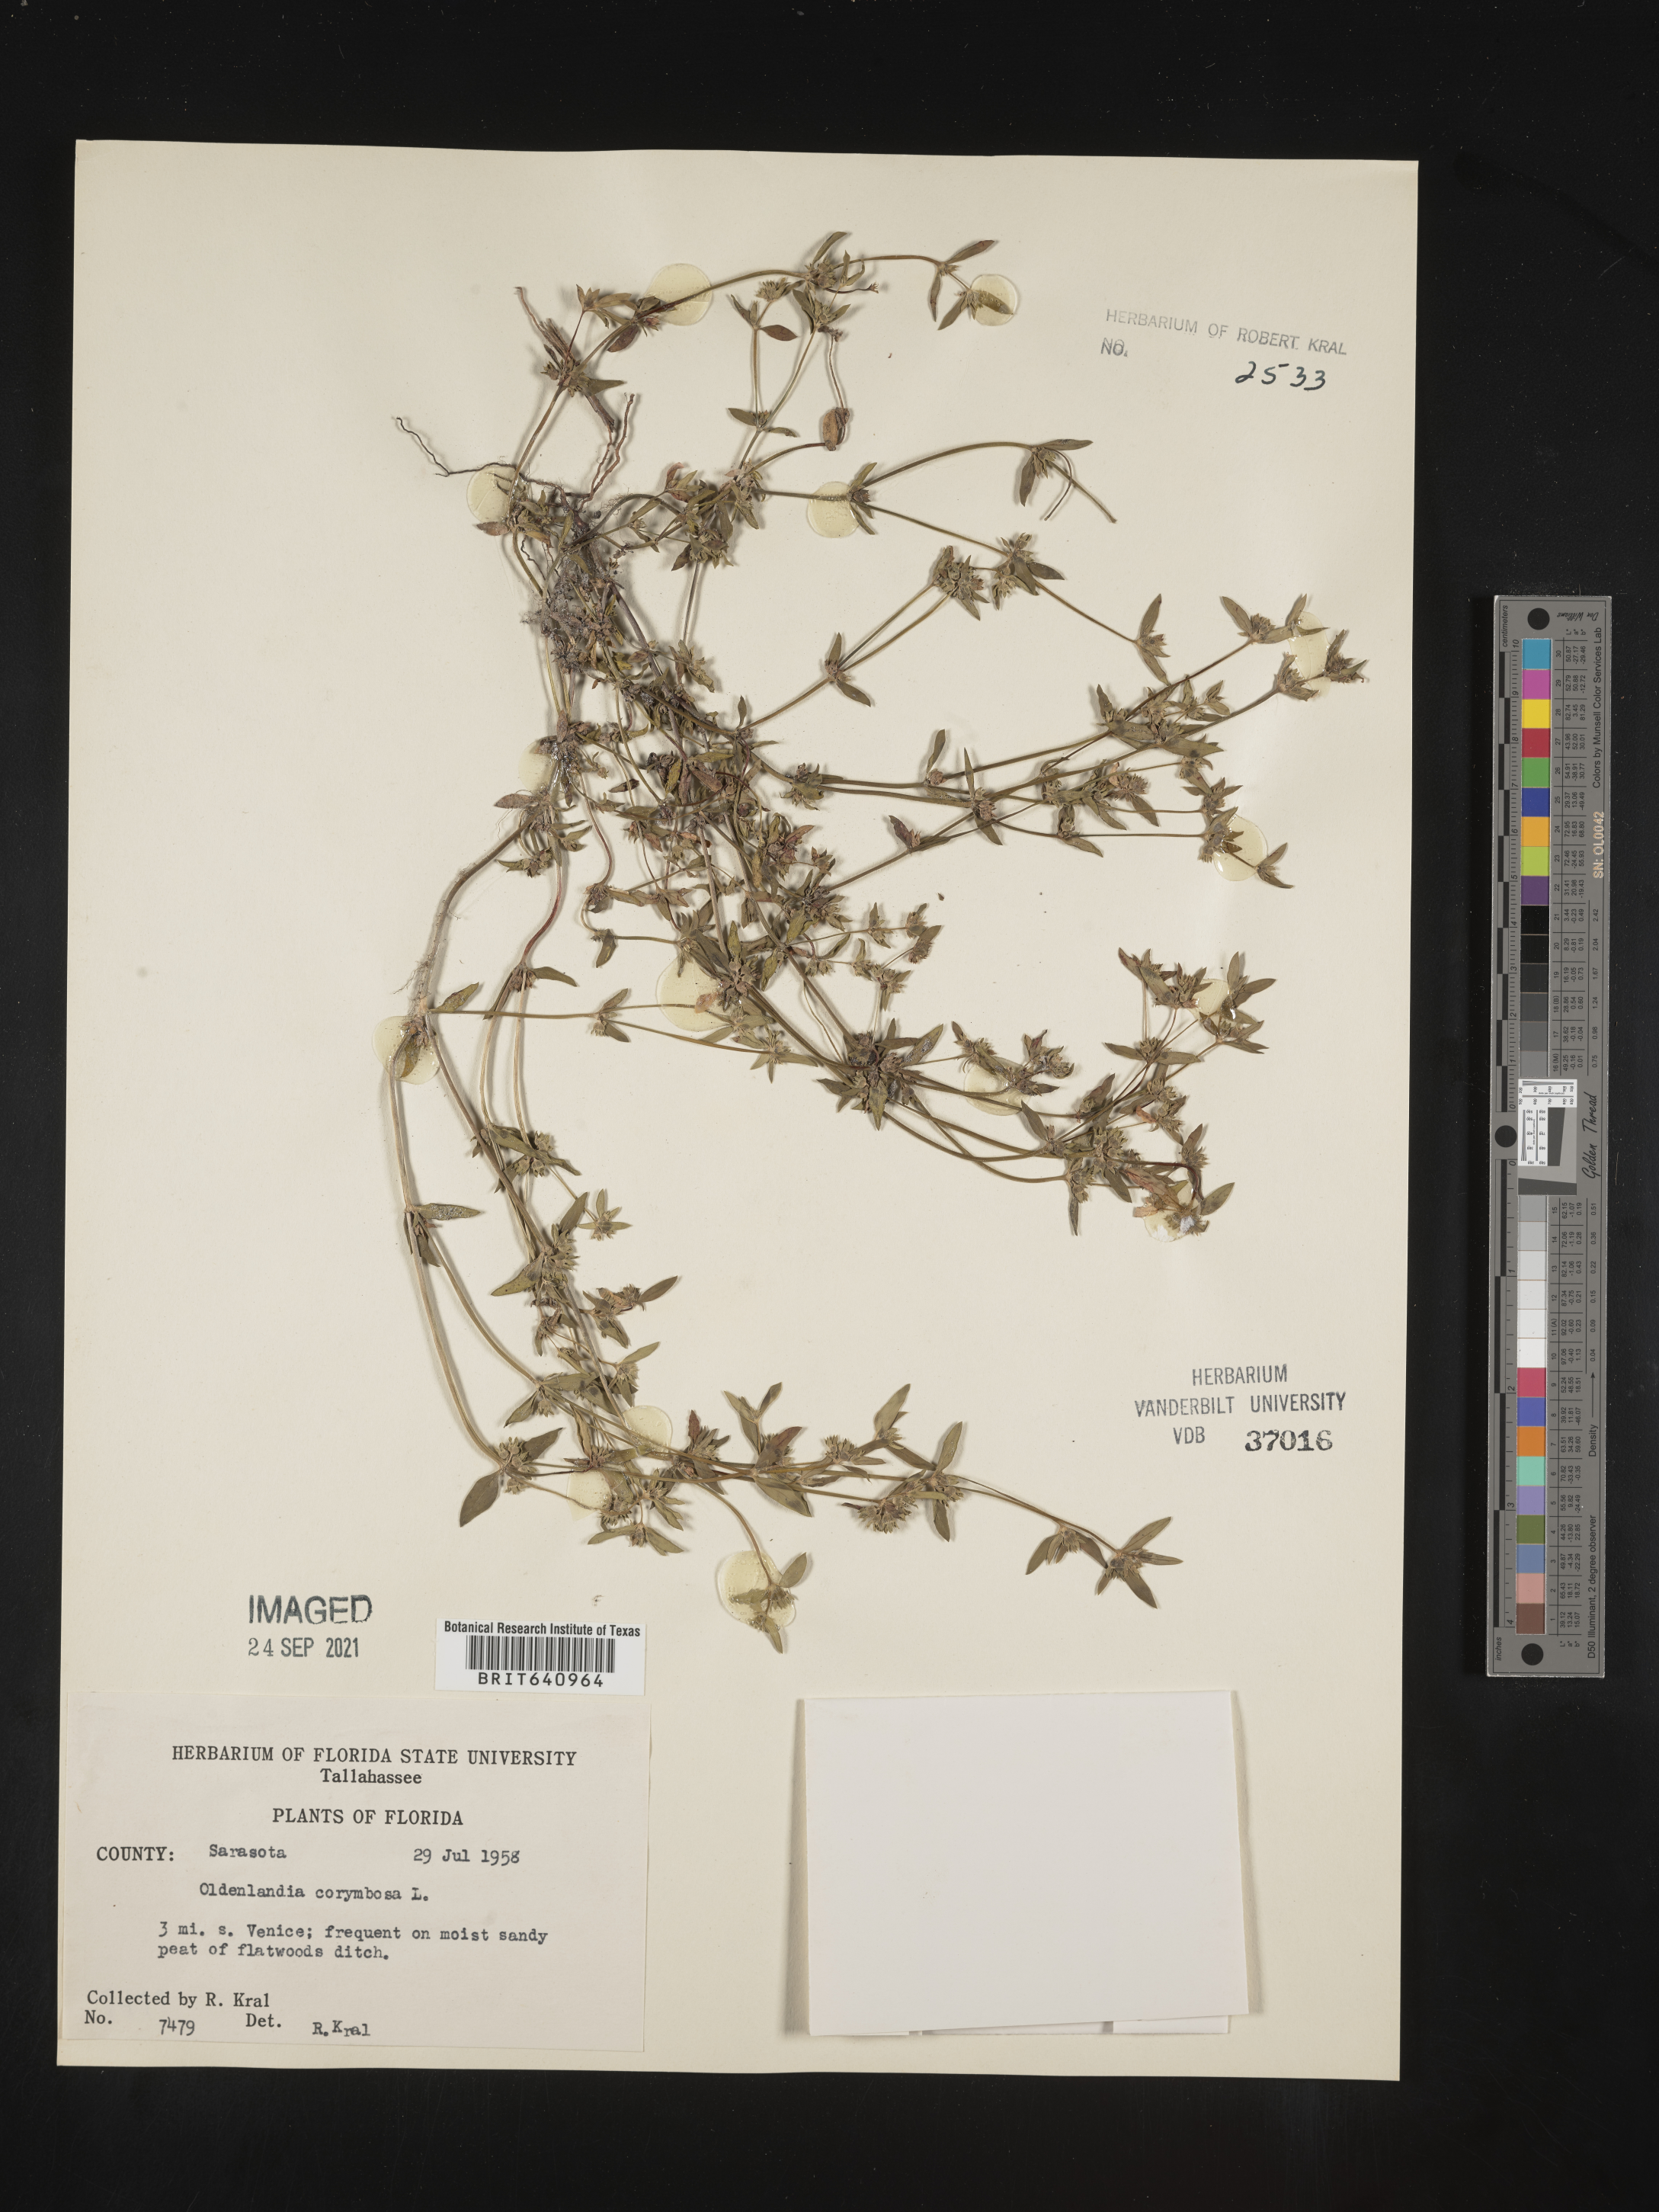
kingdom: Plantae
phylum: Tracheophyta
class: Magnoliopsida
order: Gentianales
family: Rubiaceae
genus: Oldenlandia
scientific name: Oldenlandia corymbosa
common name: Flat-top mille graines
